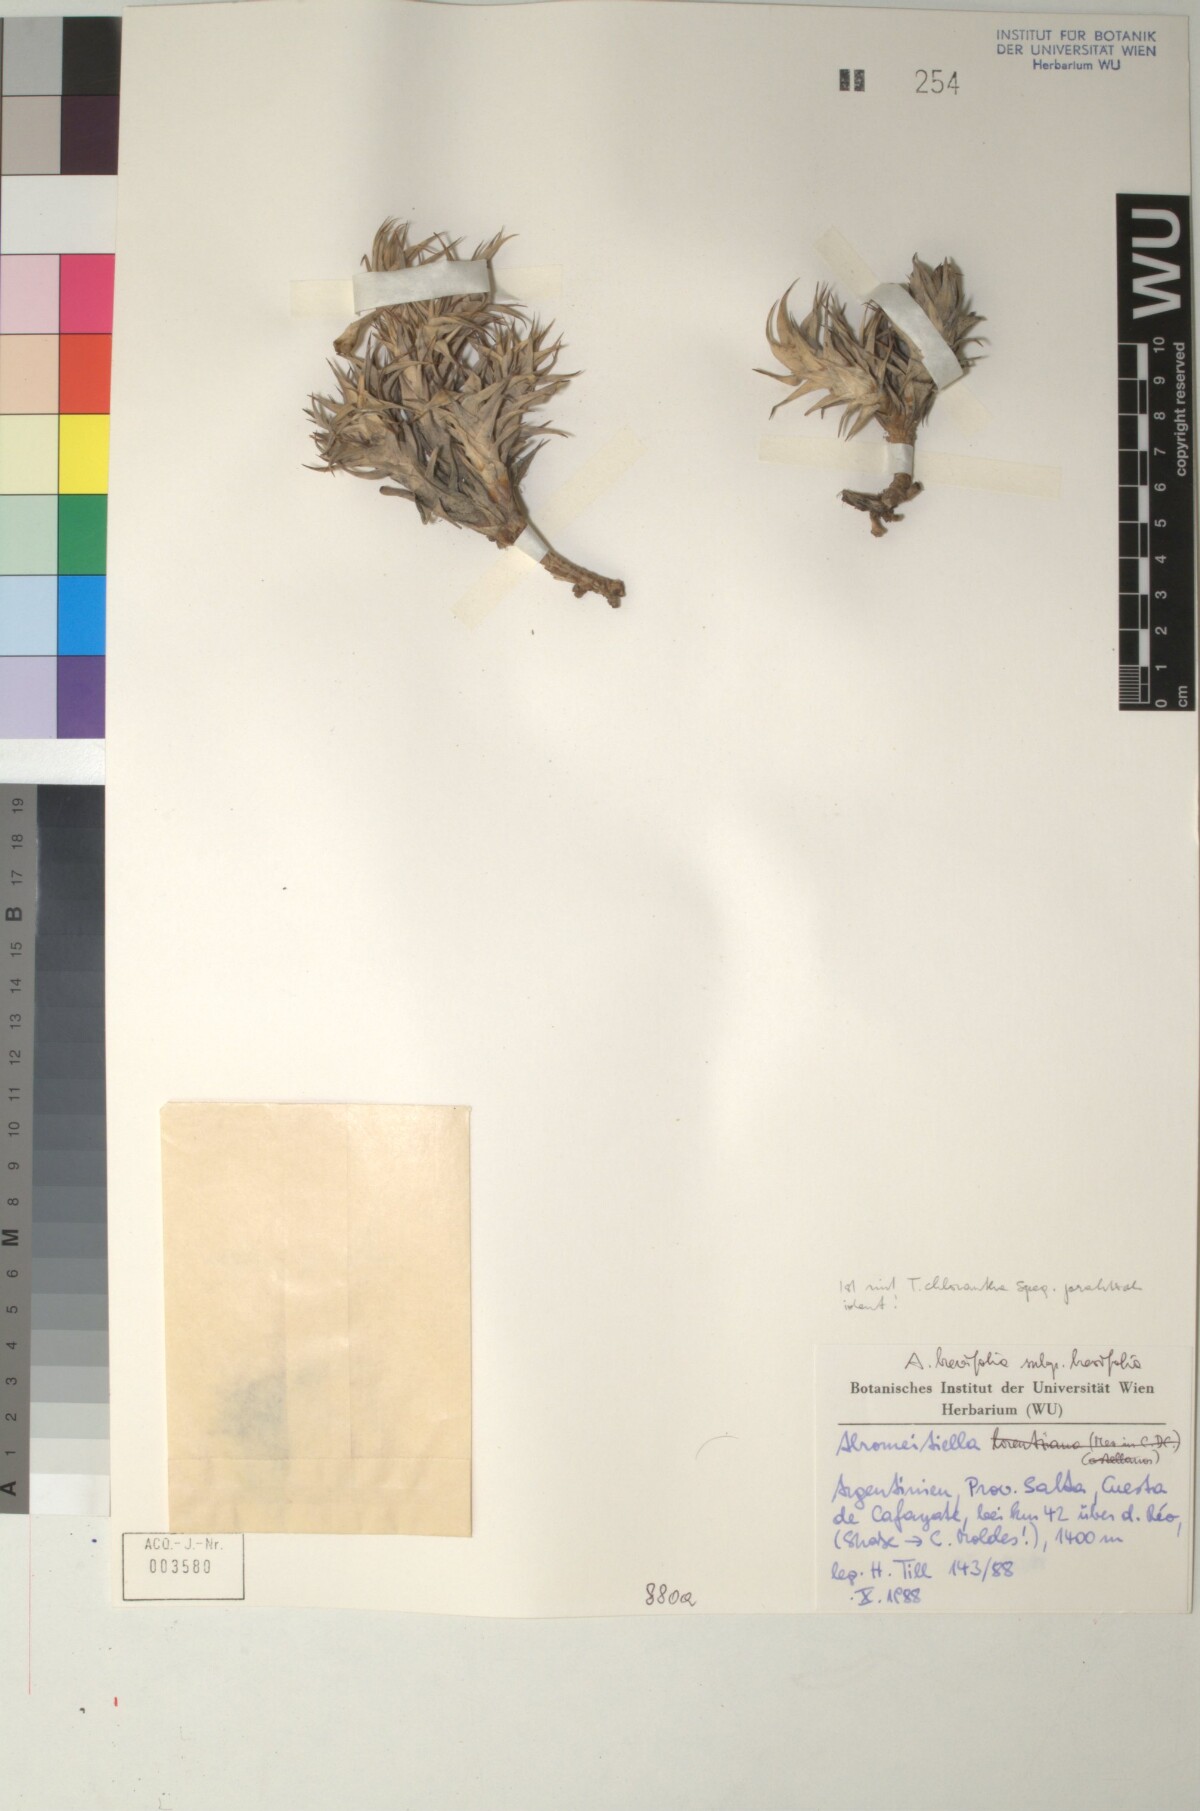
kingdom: Plantae
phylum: Tracheophyta
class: Liliopsida
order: Poales
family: Bromeliaceae
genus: Deuterocohnia
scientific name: Deuterocohnia brevifolia
